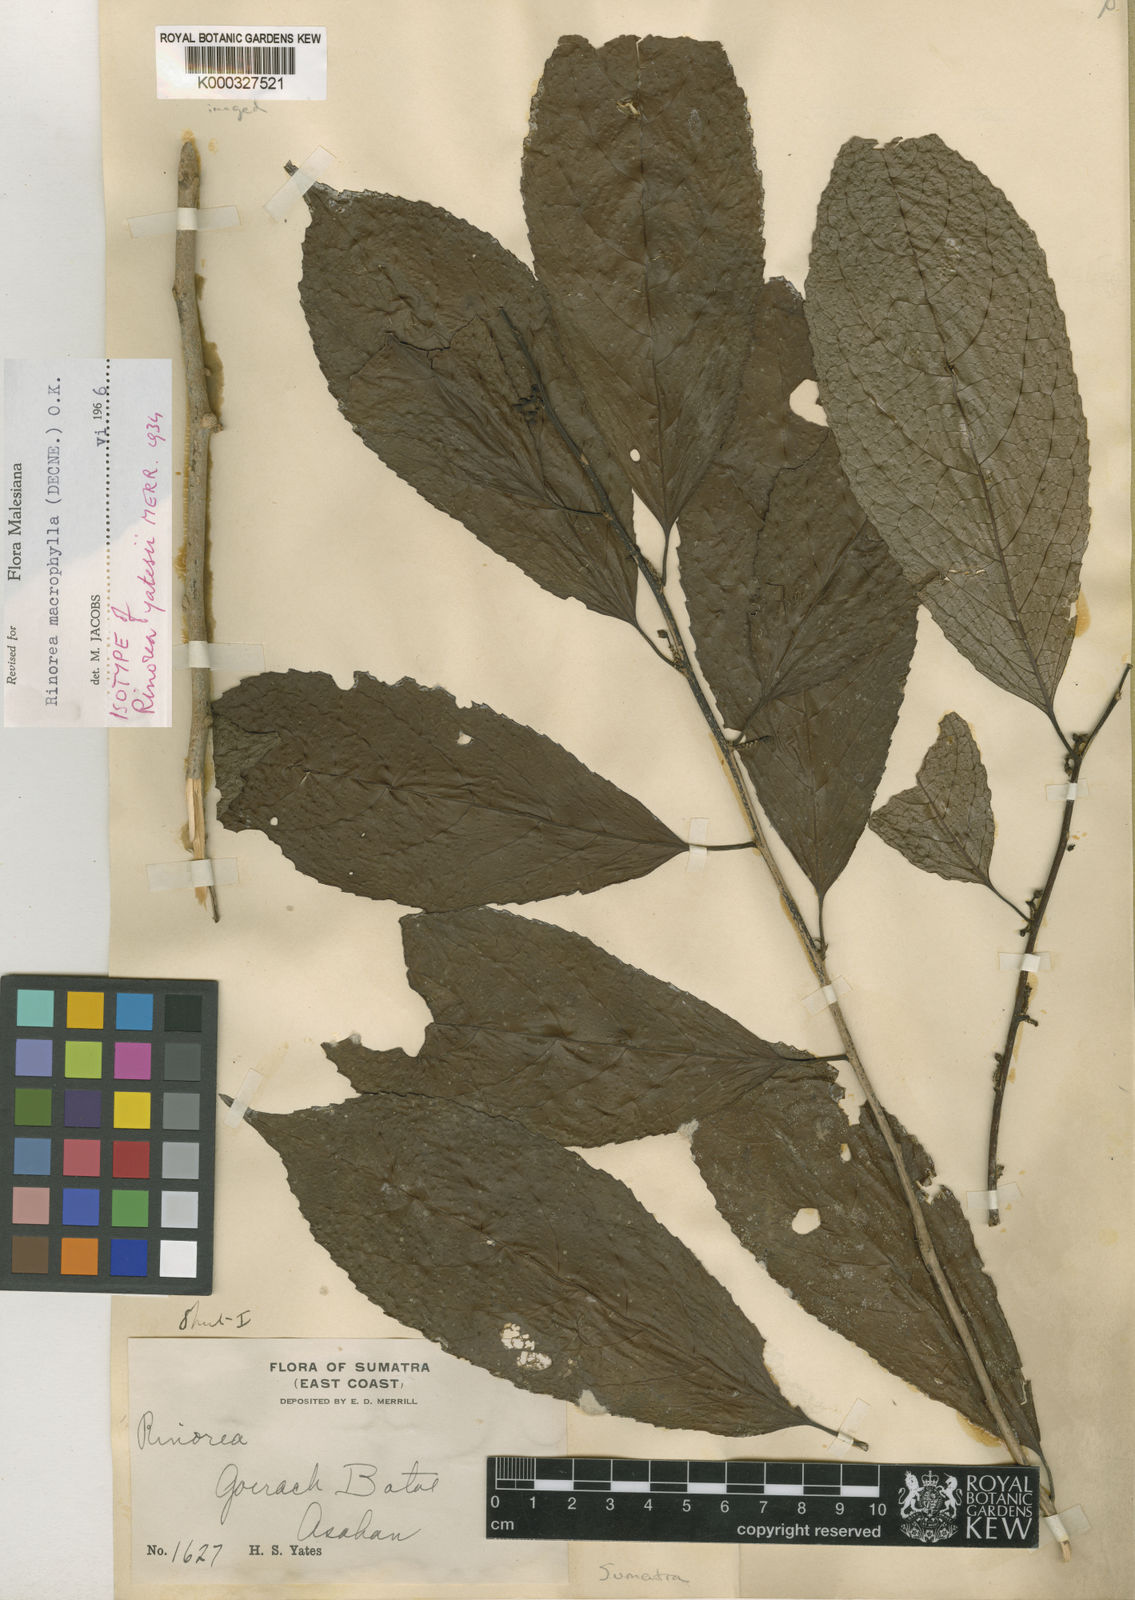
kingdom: Plantae
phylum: Tracheophyta
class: Magnoliopsida
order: Malpighiales
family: Violaceae
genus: Rinorea
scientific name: Rinorea macrophylla
